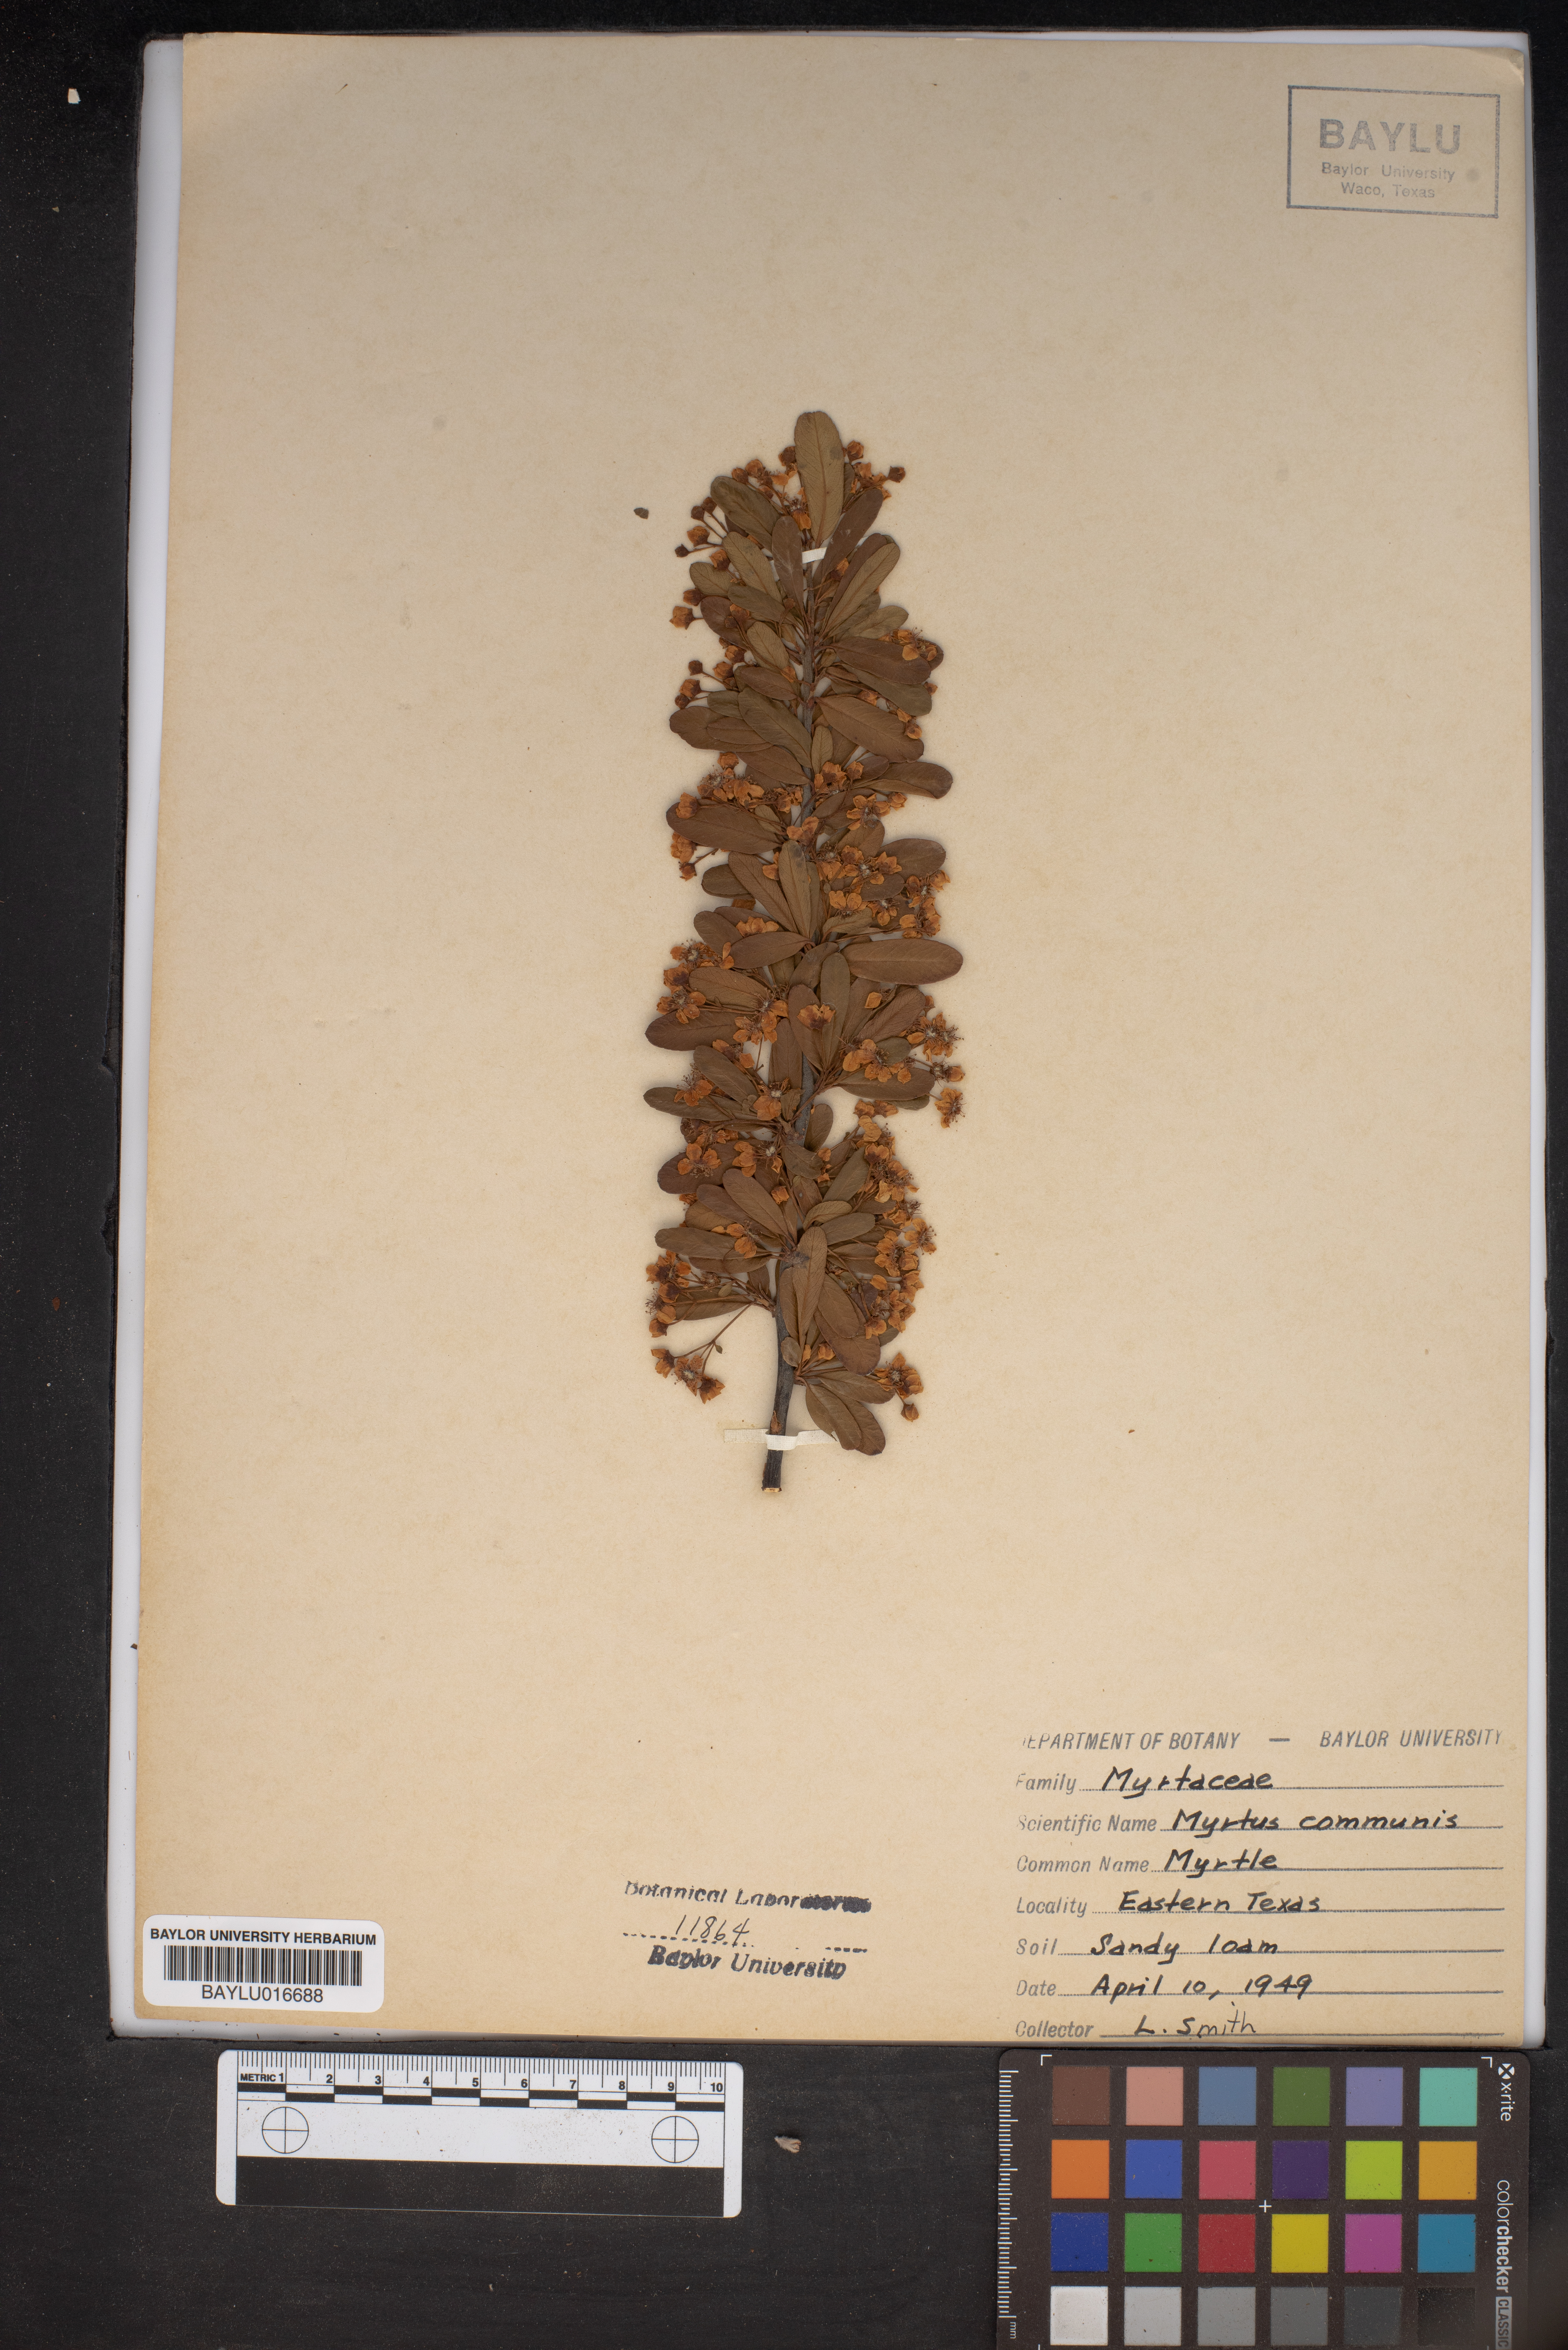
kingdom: Plantae
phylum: Tracheophyta
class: Magnoliopsida
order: Myrtales
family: Myrtaceae
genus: Myrtus
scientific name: Myrtus communis
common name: Myrtle
